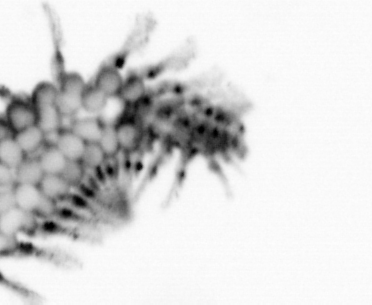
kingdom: Animalia
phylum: Annelida
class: Polychaeta
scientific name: Polychaeta
